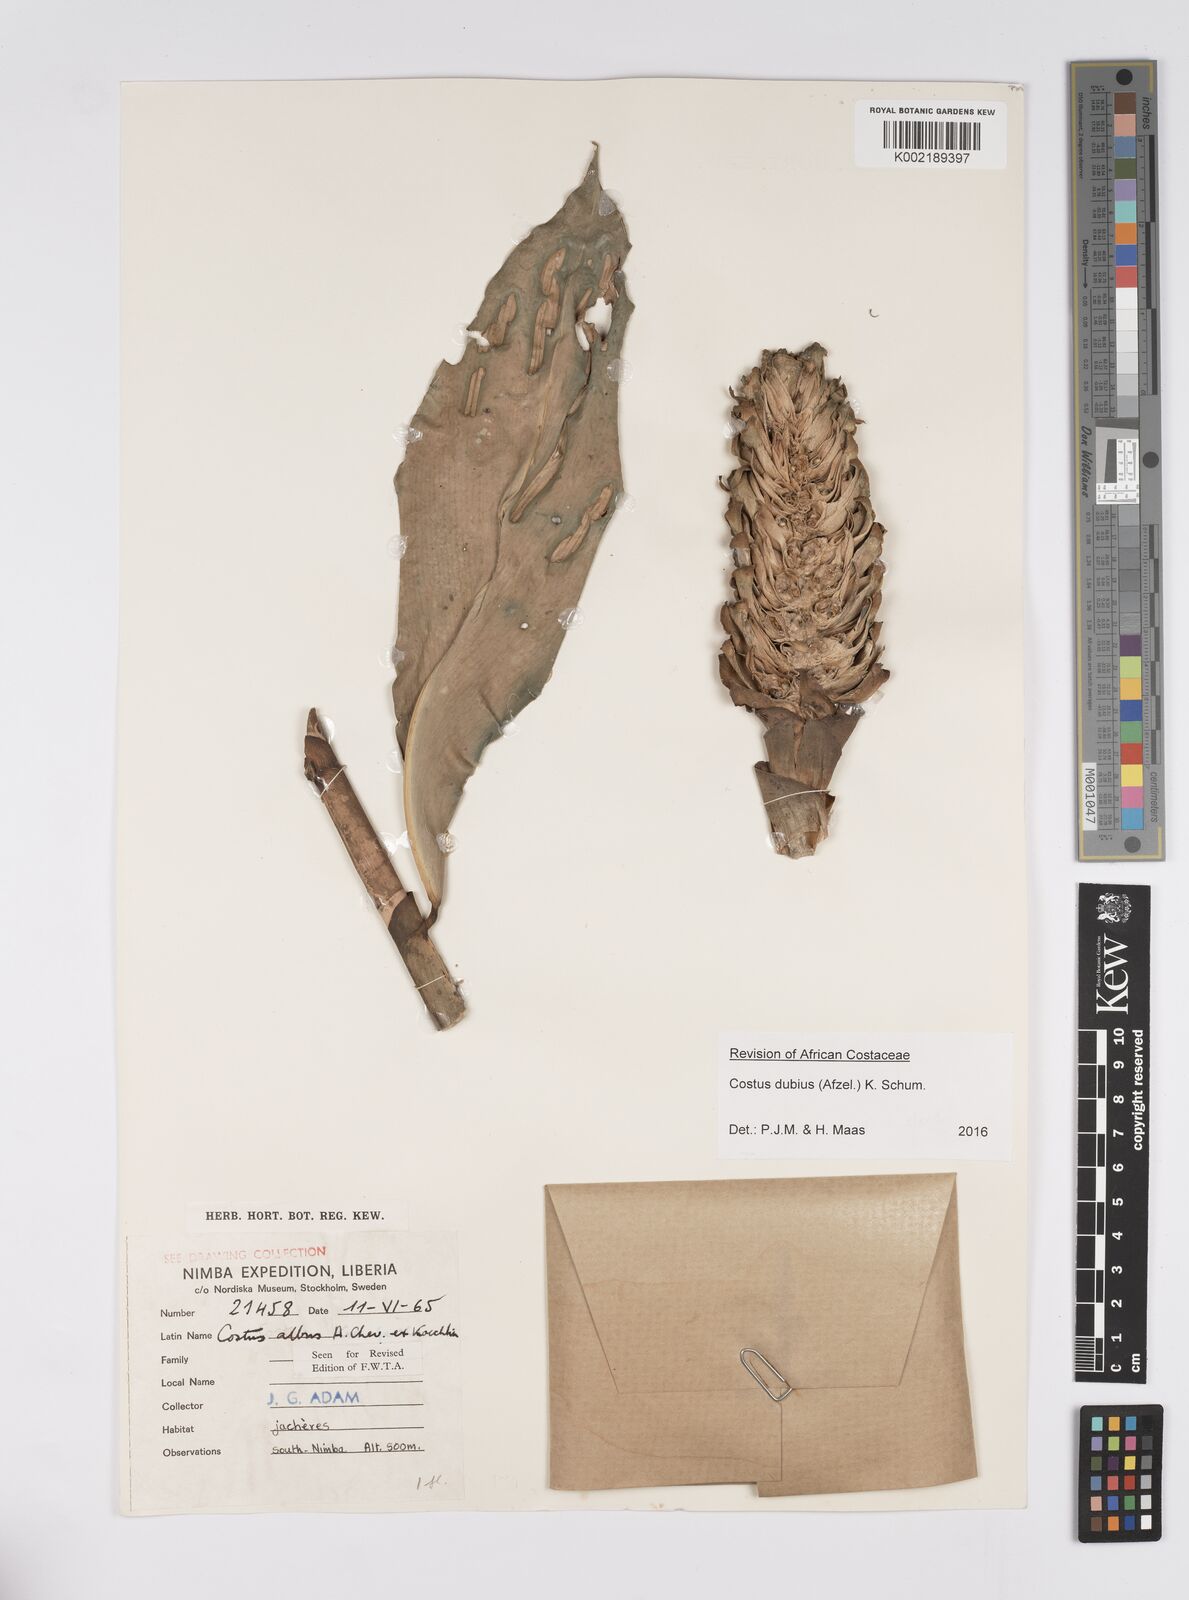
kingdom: Plantae
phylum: Tracheophyta
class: Liliopsida
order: Zingiberales
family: Costaceae
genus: Costus
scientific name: Costus dubius
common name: Costus
